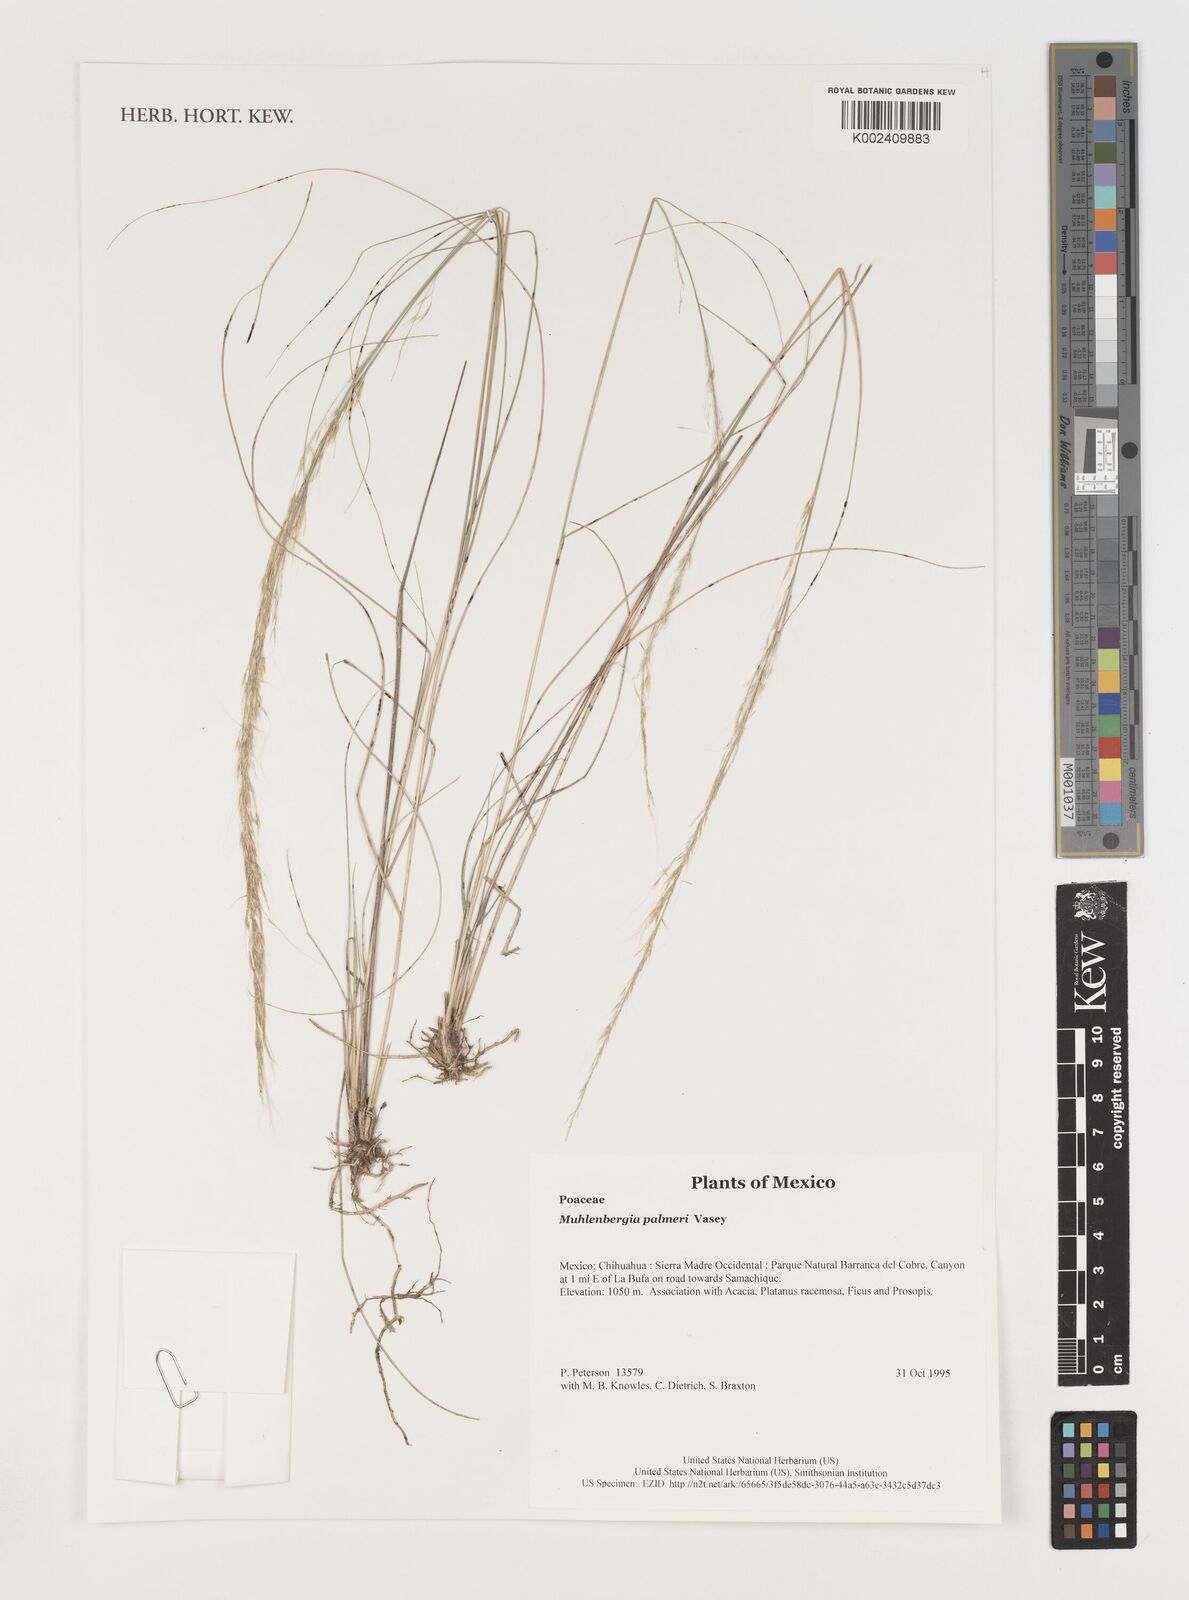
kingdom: Plantae
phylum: Tracheophyta
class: Liliopsida
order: Poales
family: Poaceae
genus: Muhlenbergia
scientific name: Muhlenbergia palmeri
